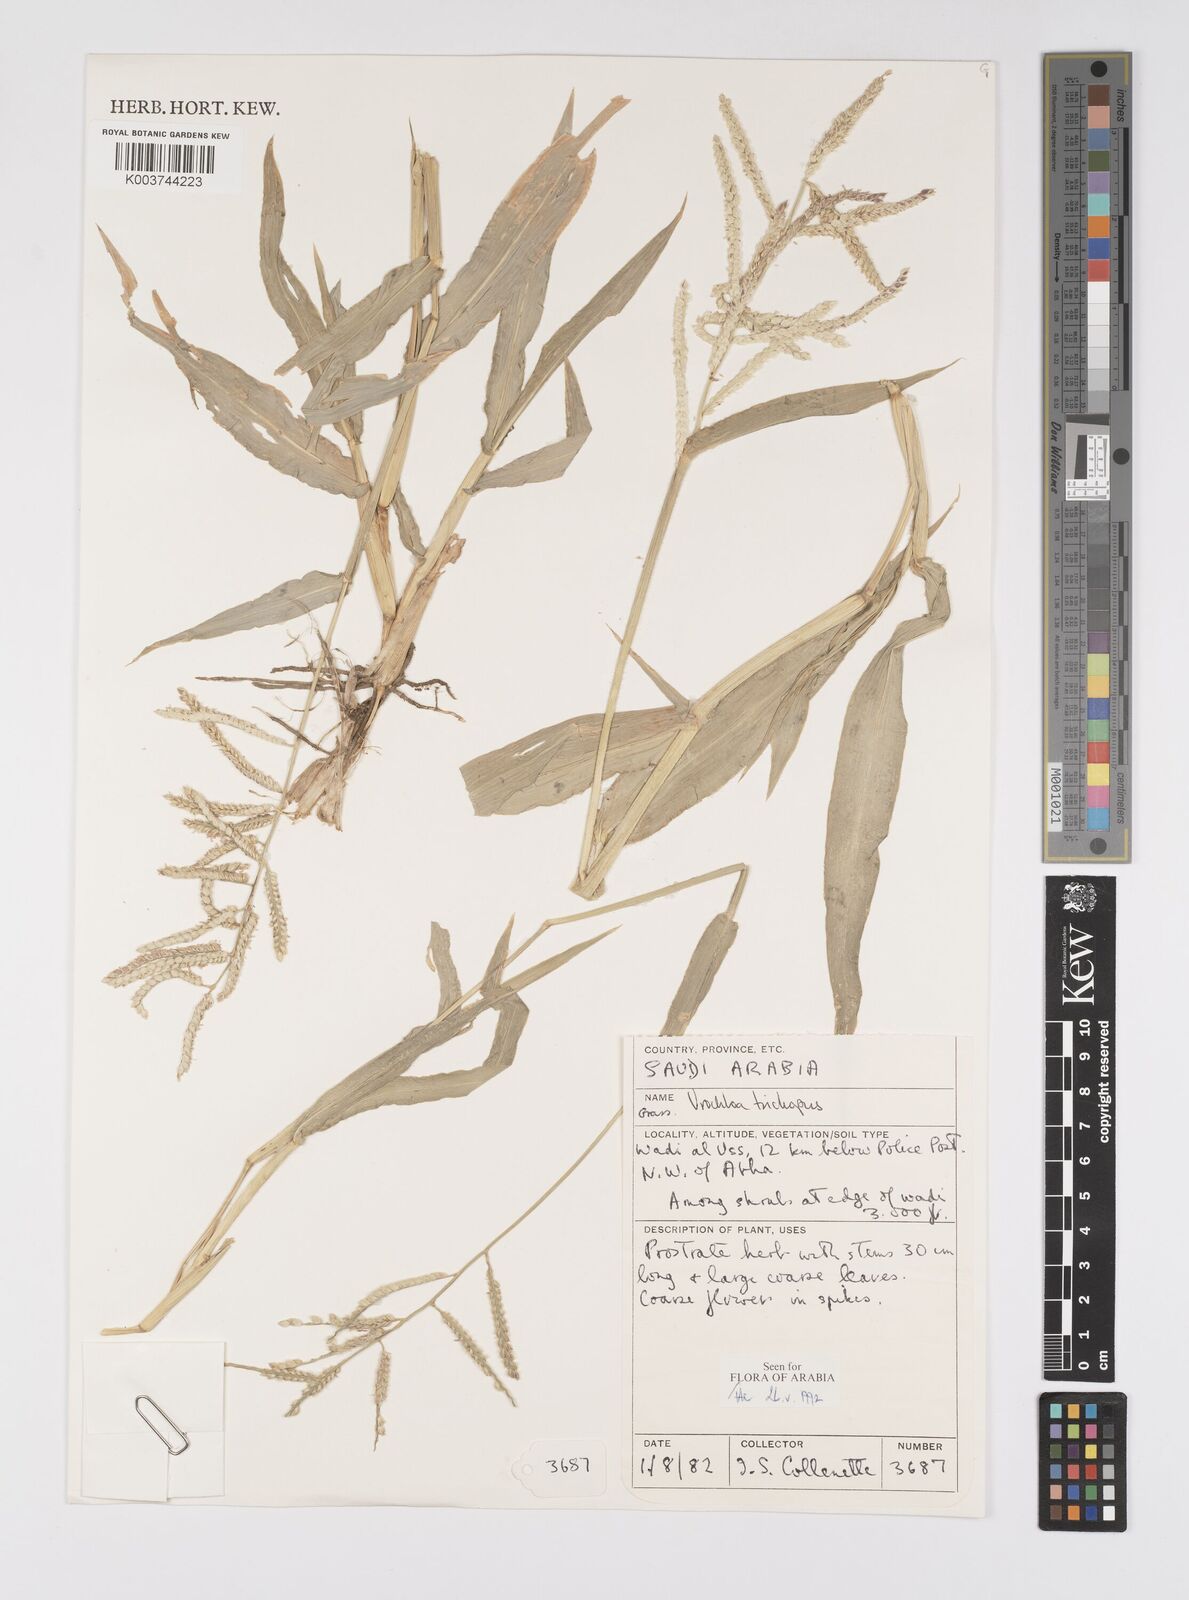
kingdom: Plantae
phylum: Tracheophyta
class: Liliopsida
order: Poales
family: Poaceae
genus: Urochloa
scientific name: Urochloa trichopus
